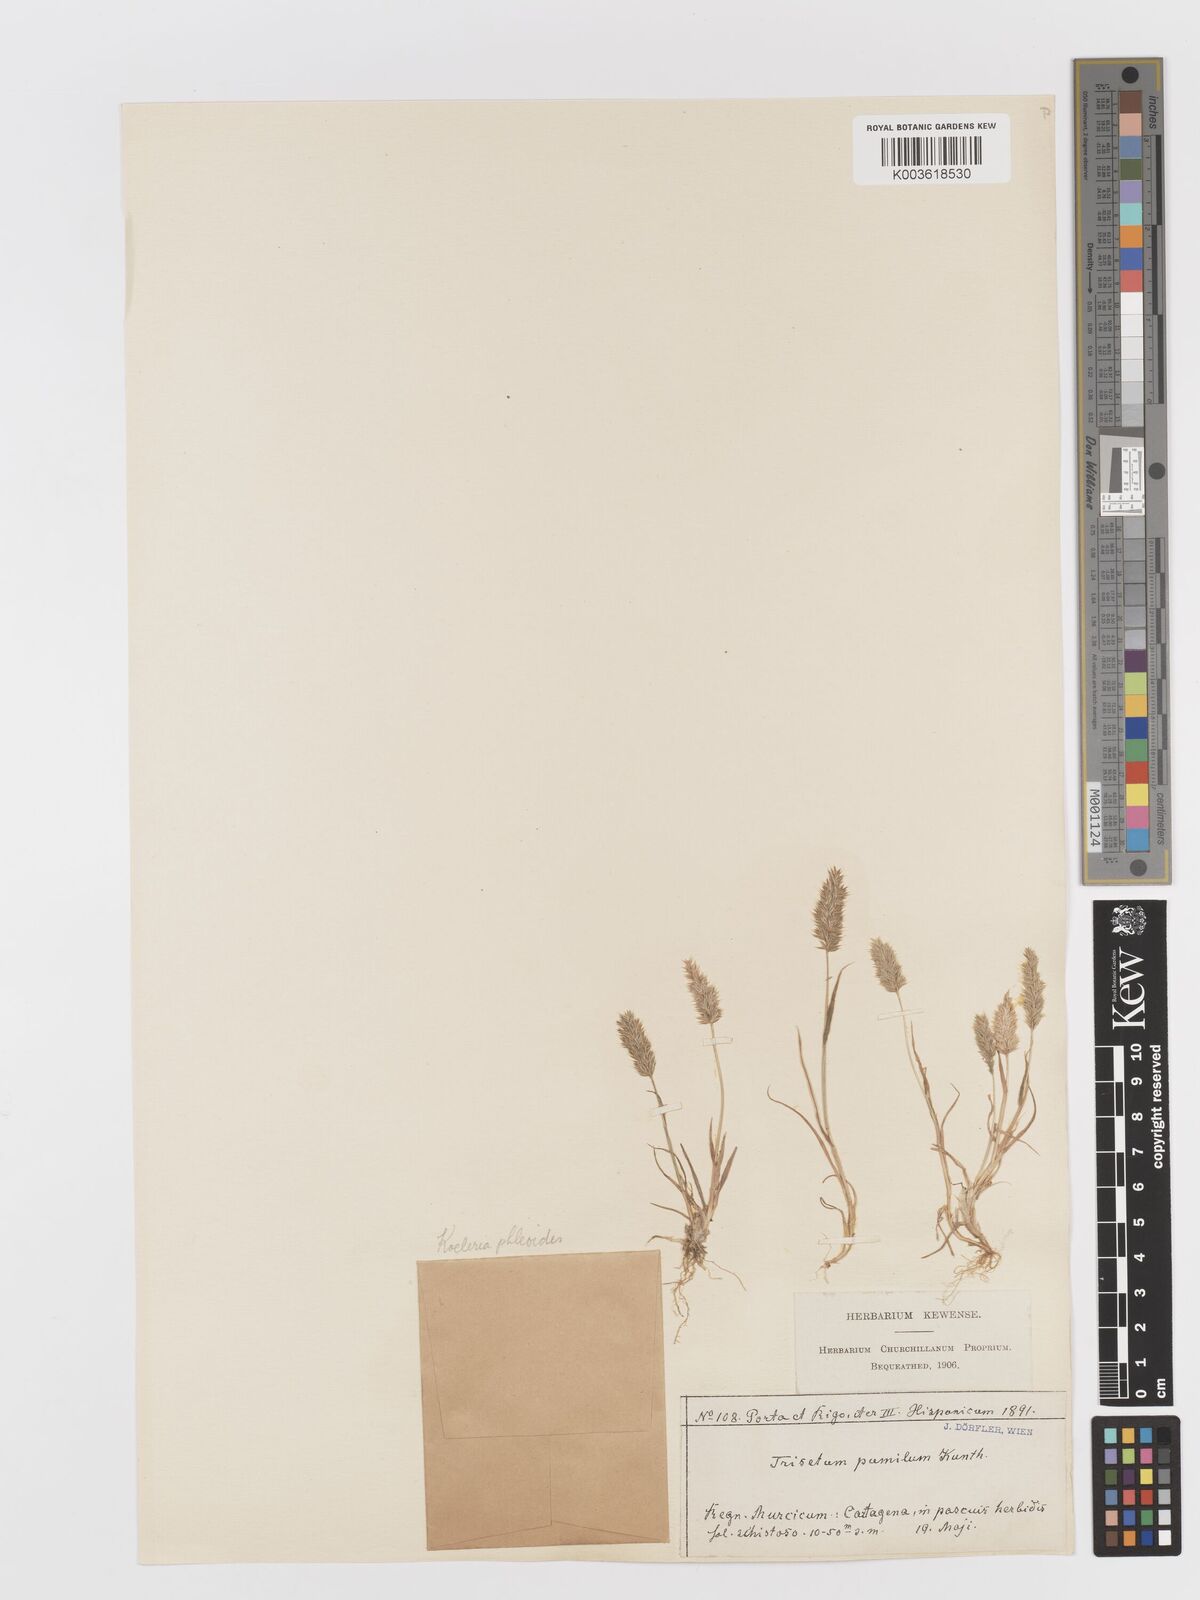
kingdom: Plantae
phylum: Tracheophyta
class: Liliopsida
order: Poales
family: Poaceae
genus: Rostraria
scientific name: Rostraria cristata
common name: Mediterranean hair-grass
